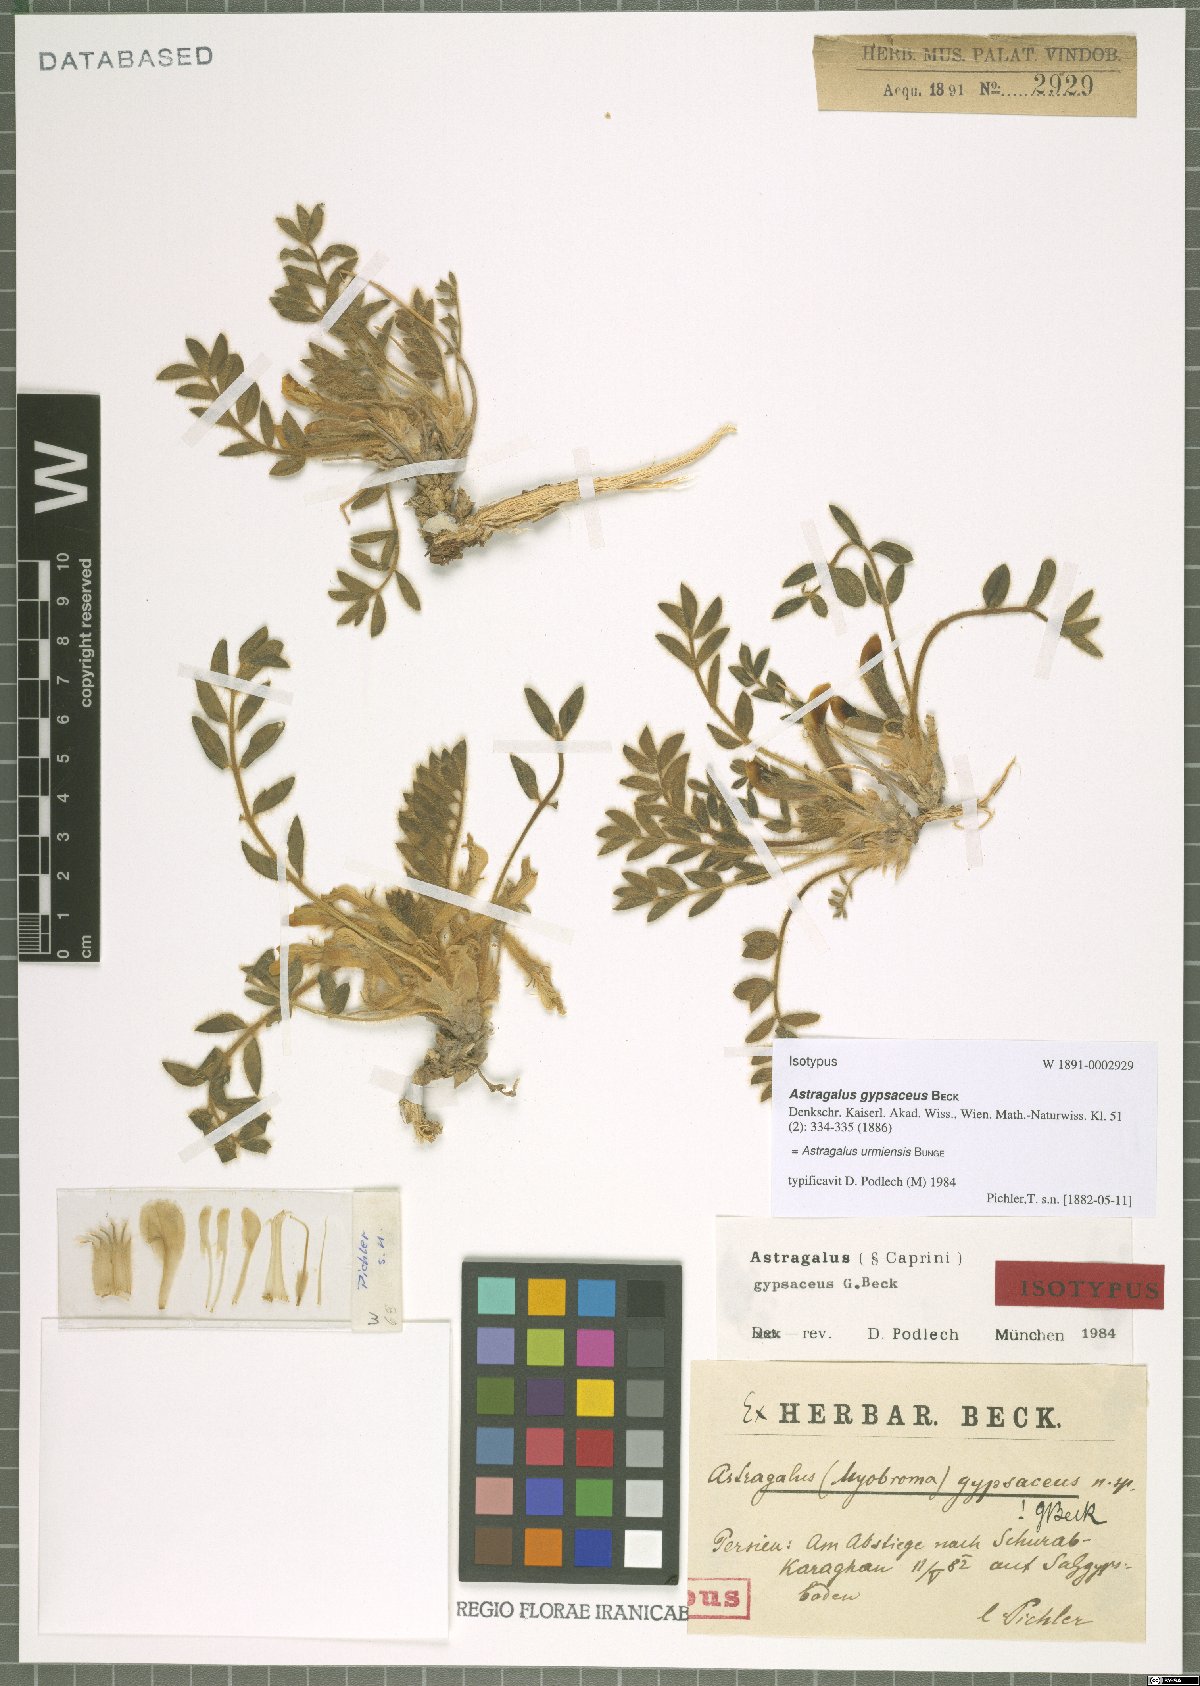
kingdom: Plantae
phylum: Tracheophyta
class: Magnoliopsida
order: Fabales
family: Fabaceae
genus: Astragalus
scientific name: Astragalus urmiensis
